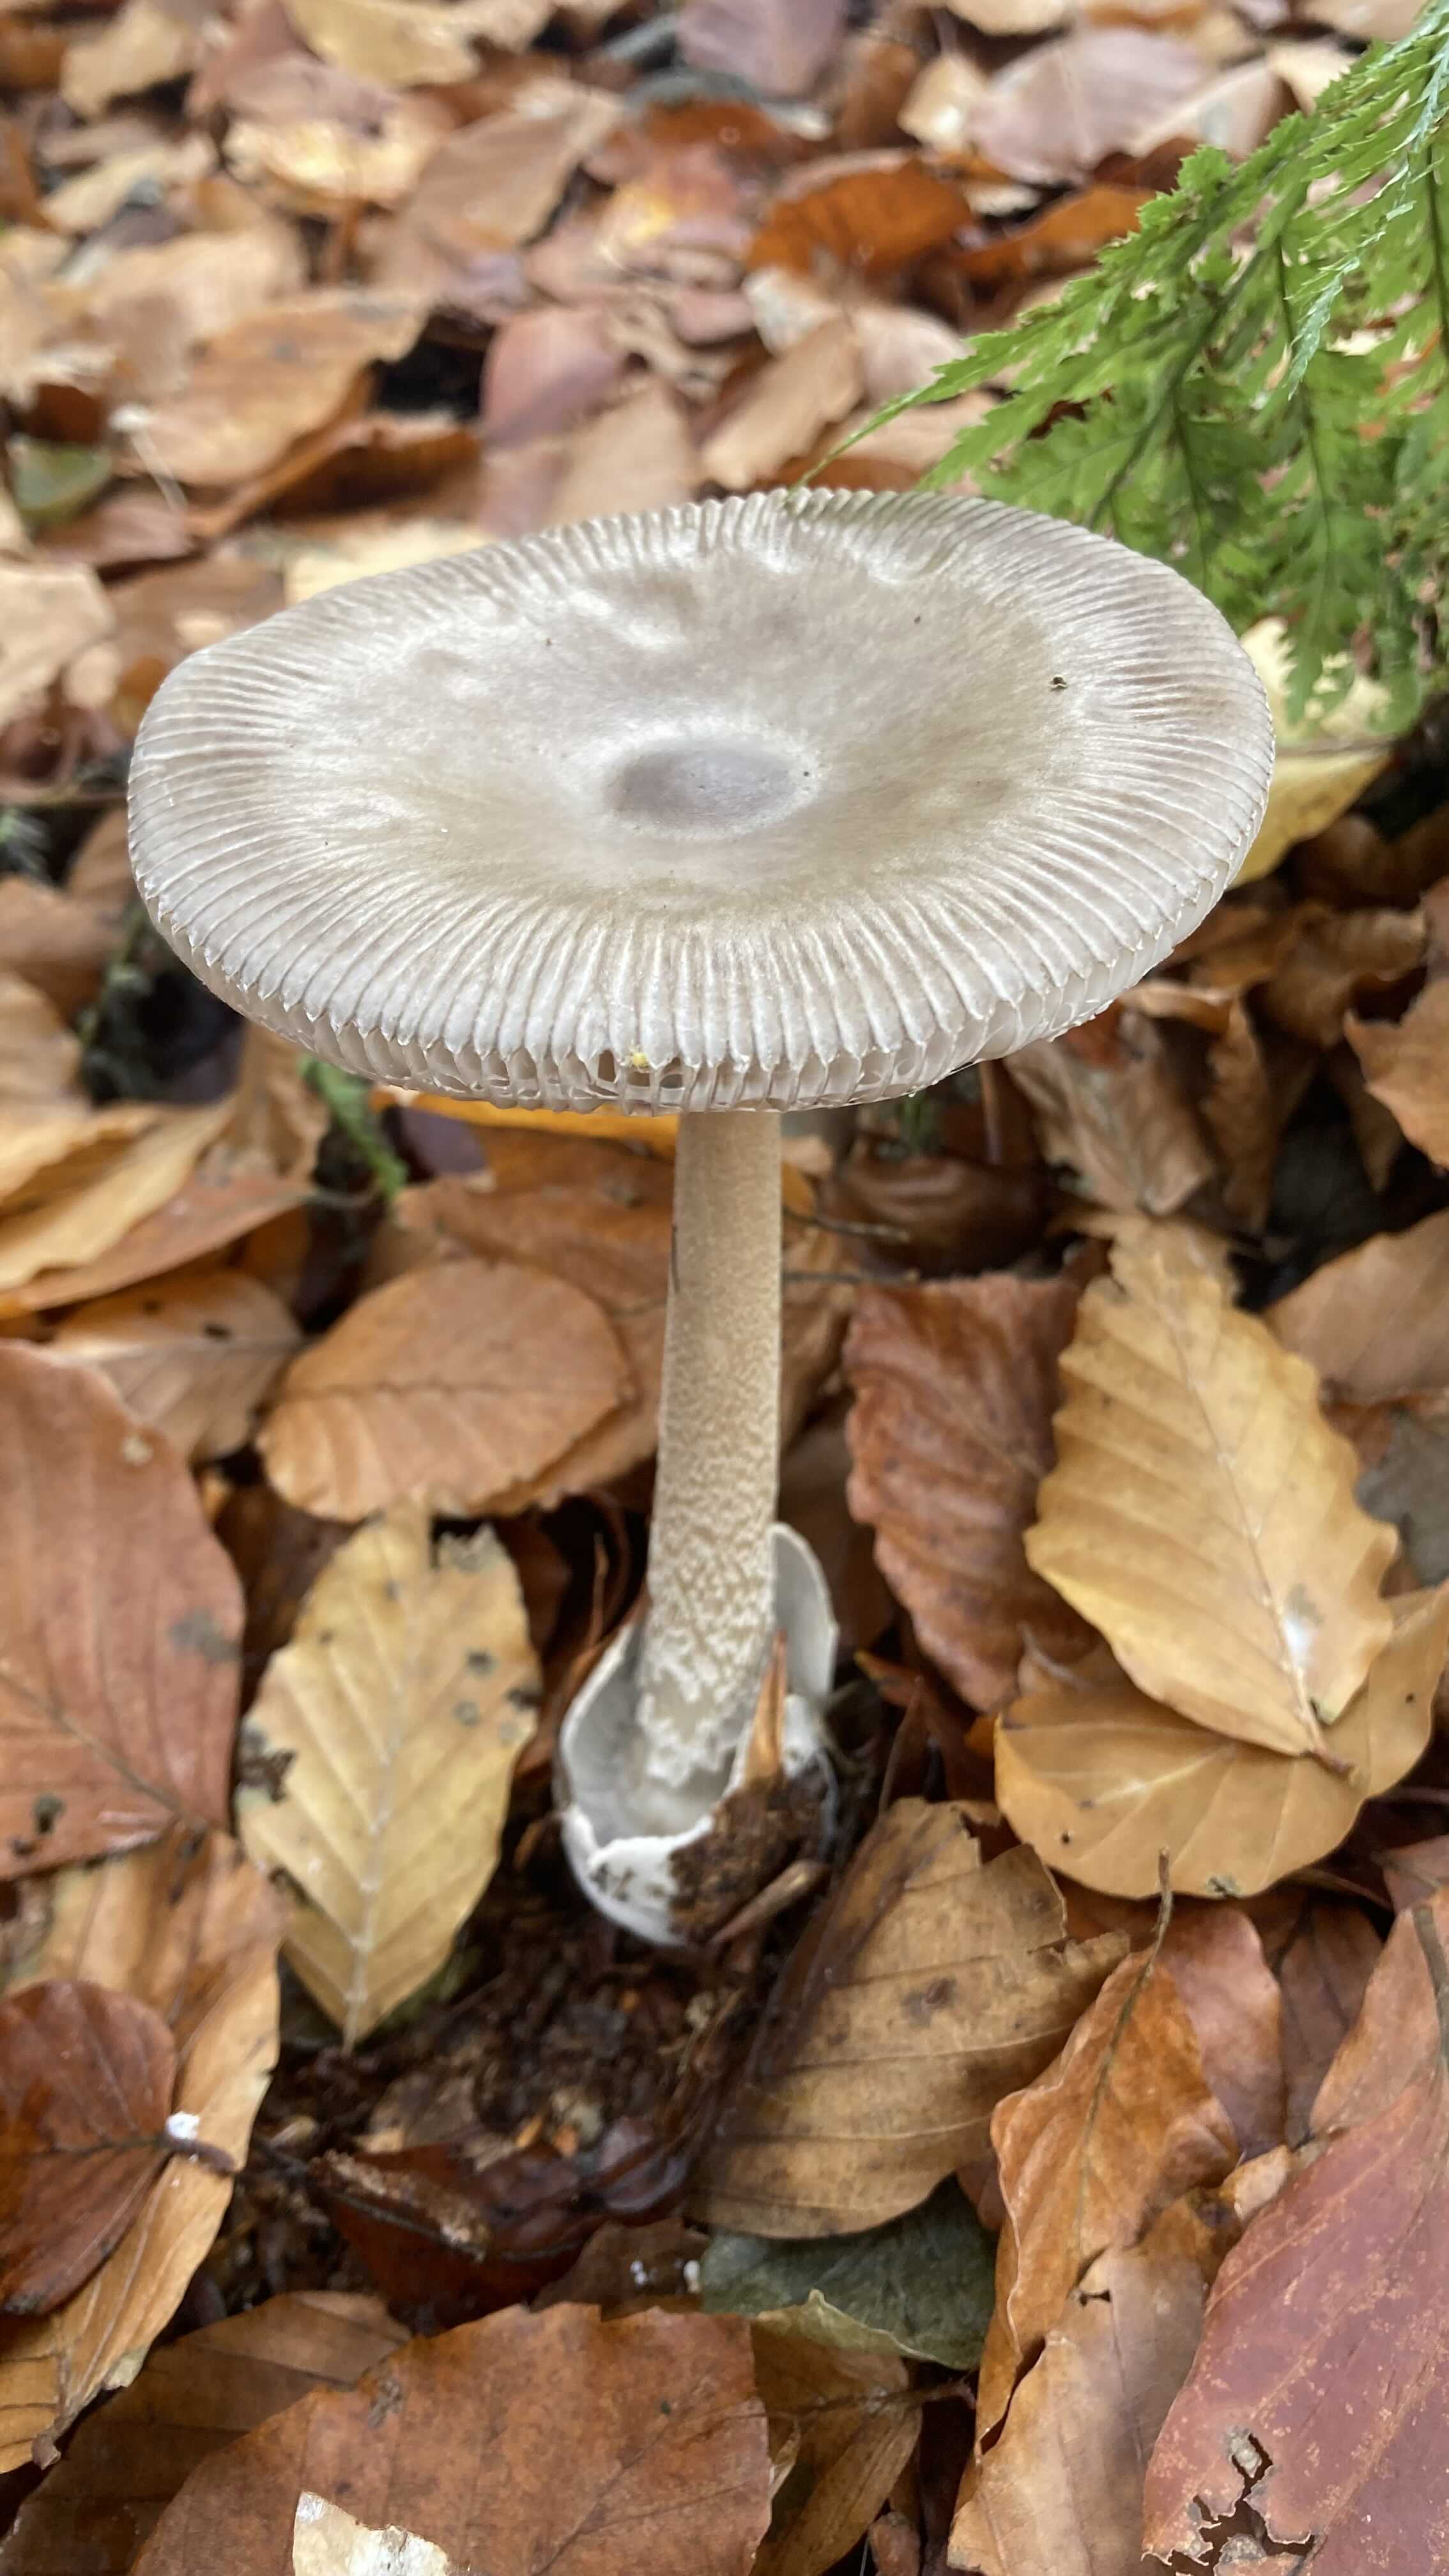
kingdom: Fungi
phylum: Basidiomycota
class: Agaricomycetes
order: Agaricales
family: Amanitaceae
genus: Amanita
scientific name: Amanita vaginata
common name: grå kam-fluesvamp
